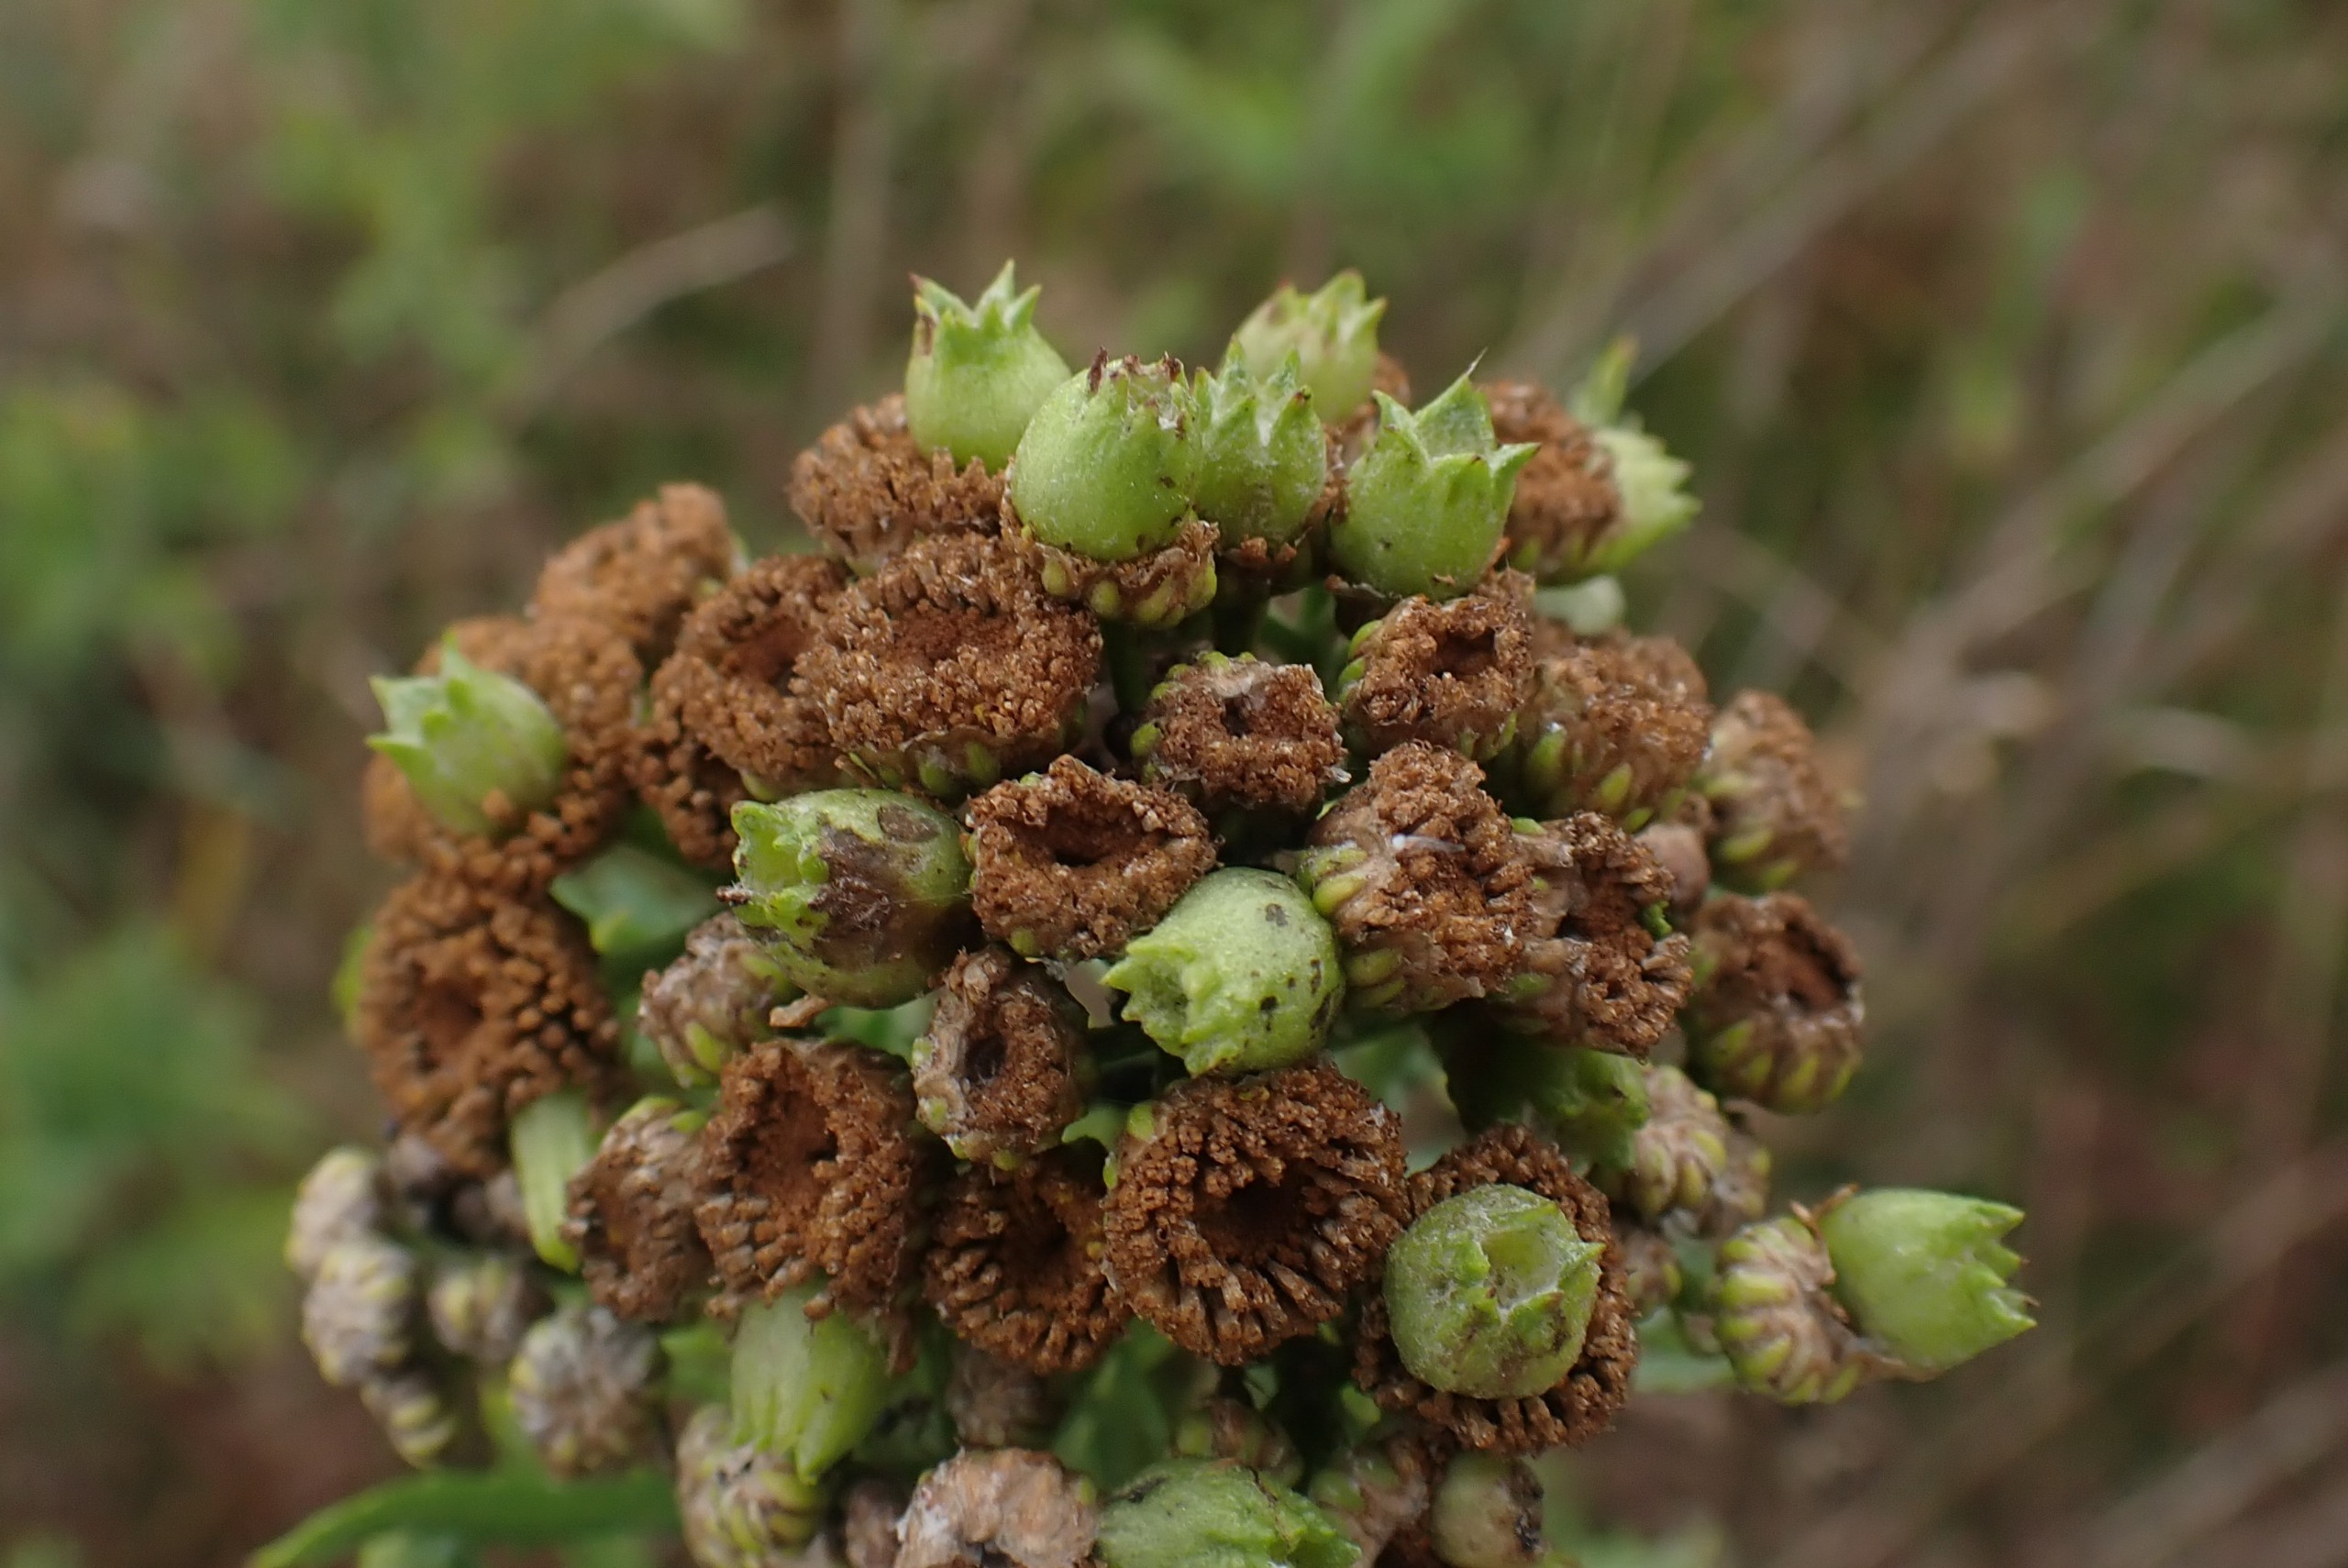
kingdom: Animalia
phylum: Arthropoda
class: Insecta
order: Diptera
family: Cecidomyiidae
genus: Rhopalomyia
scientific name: Rhopalomyia tanaceticolus
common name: Rejnfangalmyg
